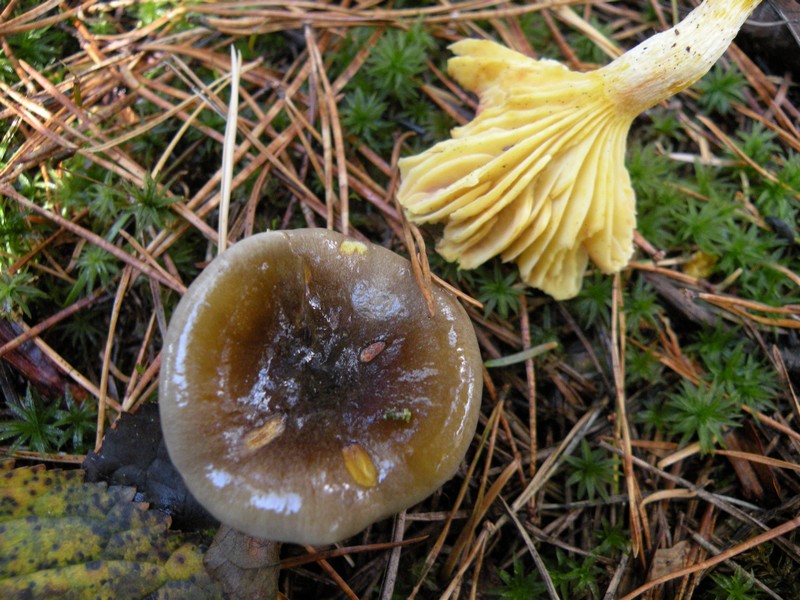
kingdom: Fungi
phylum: Basidiomycota
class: Agaricomycetes
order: Agaricales
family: Hygrophoraceae
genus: Hygrophorus
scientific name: Hygrophorus hypothejus
